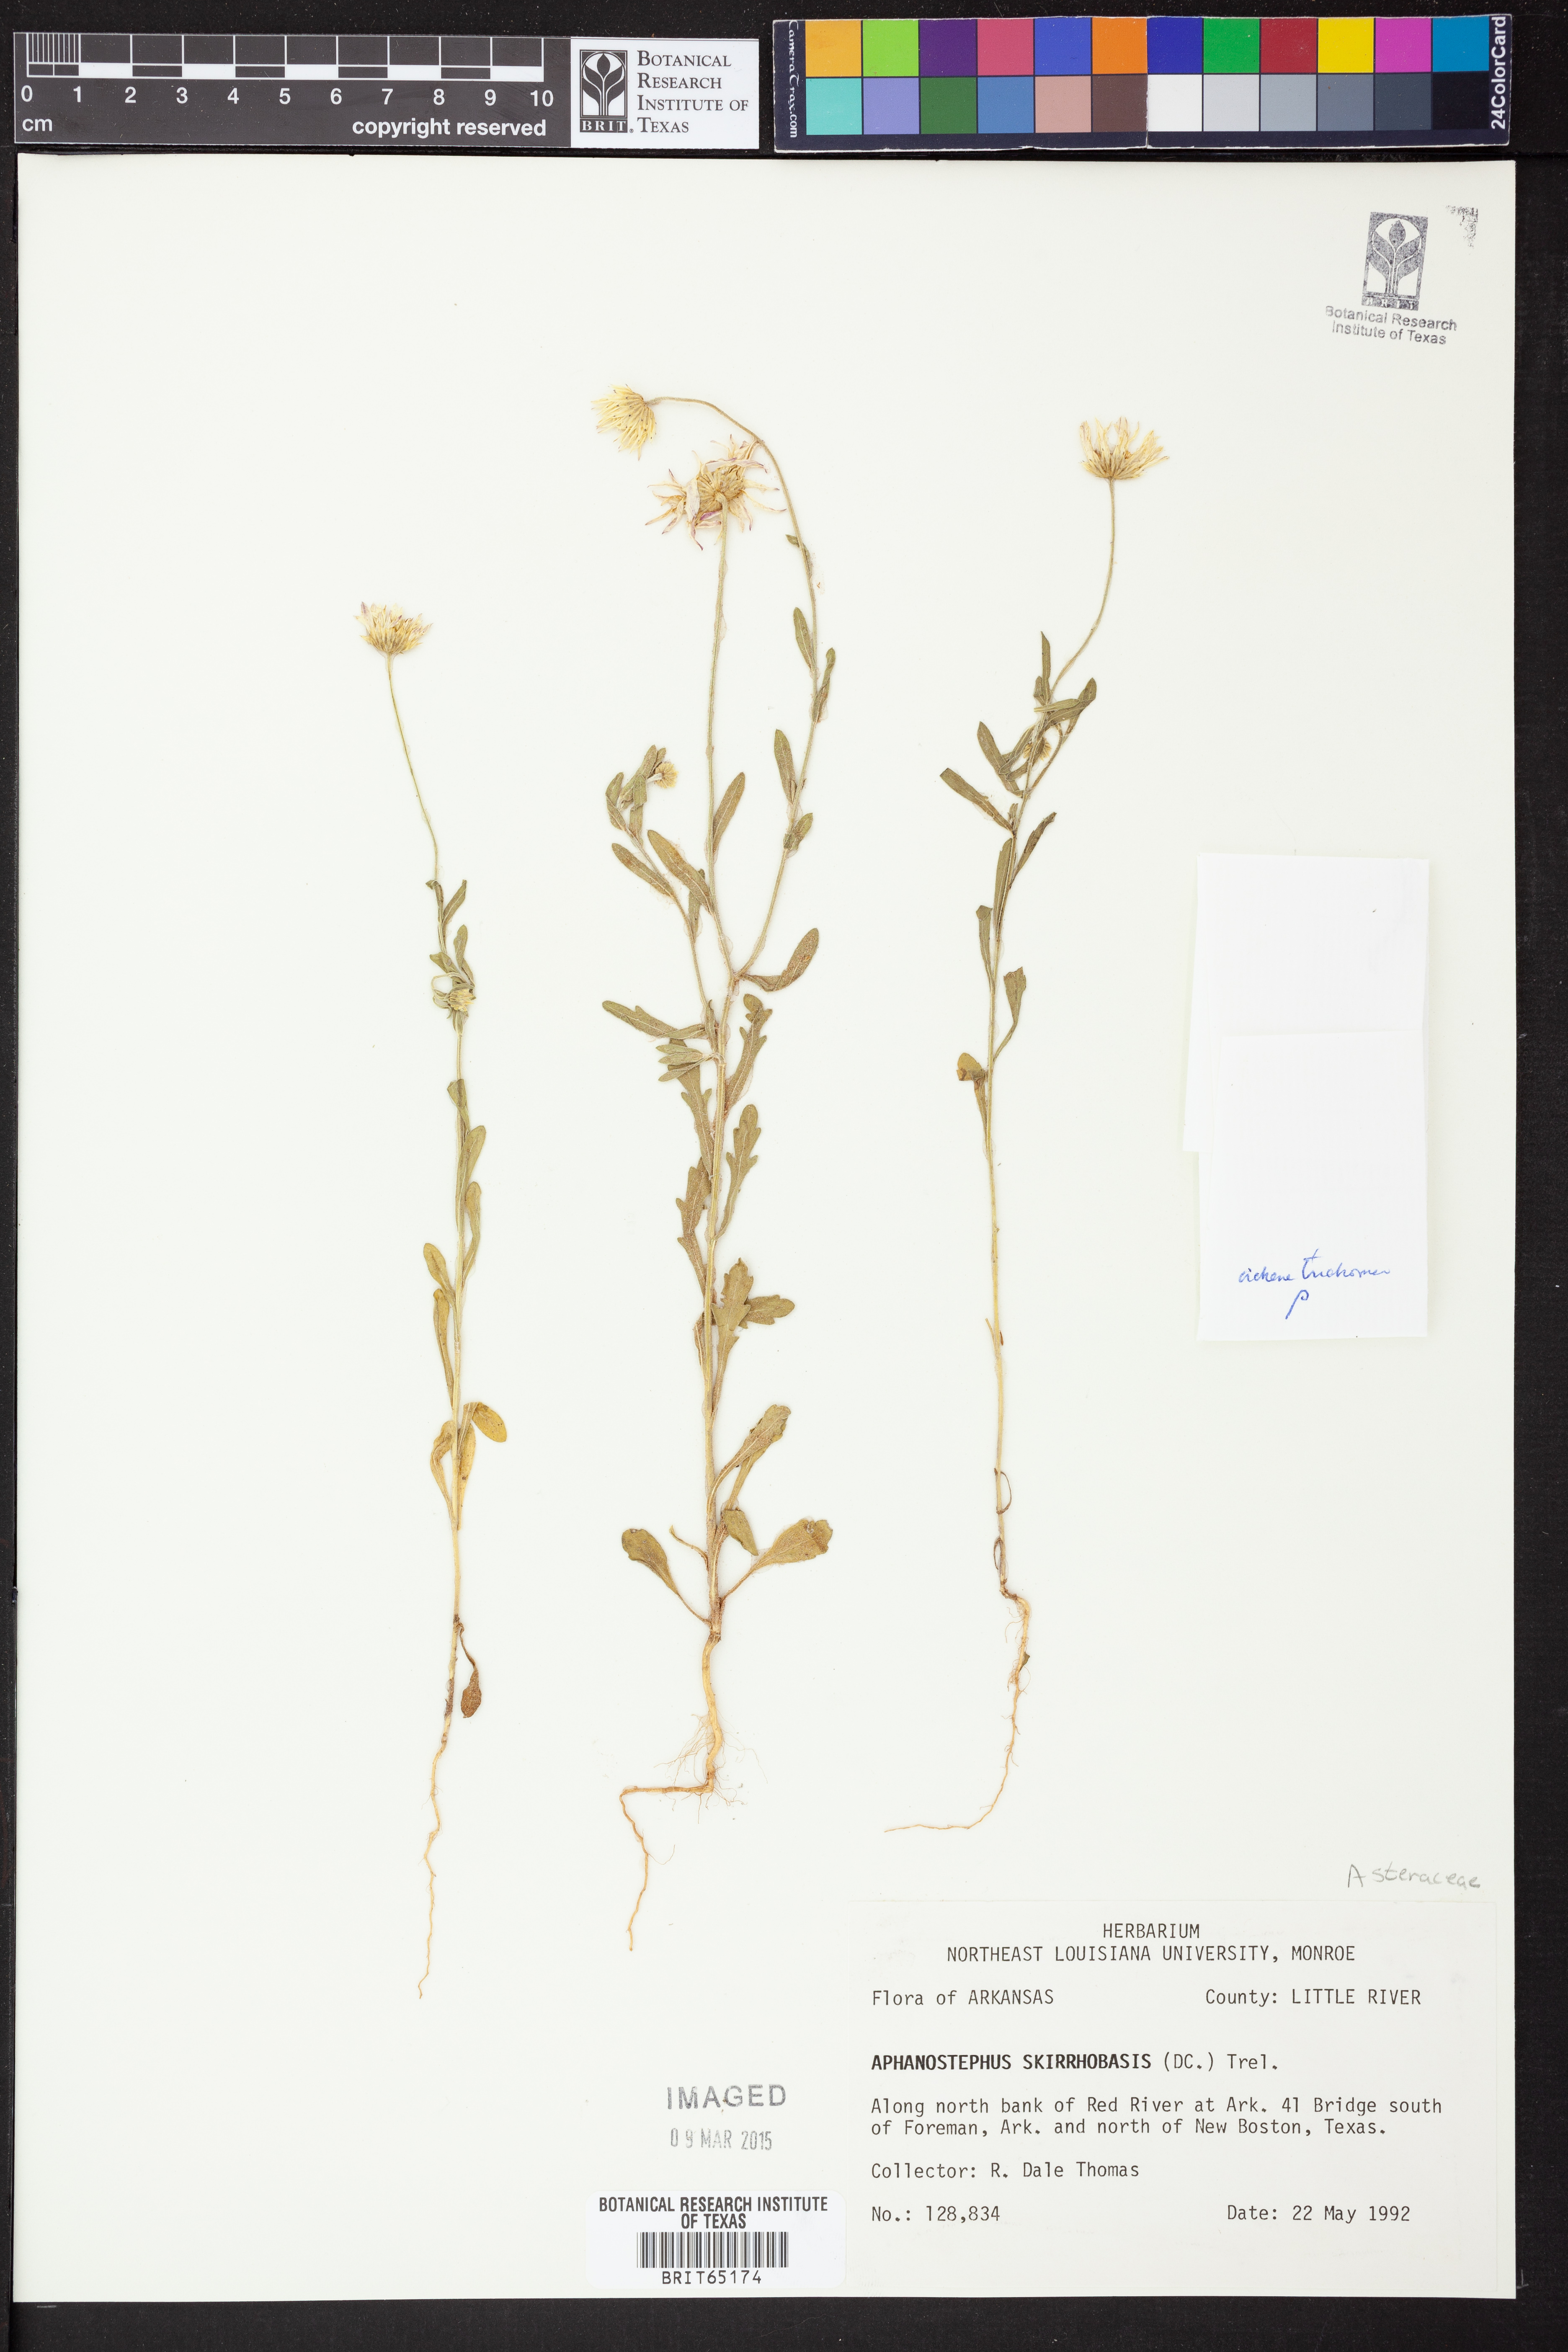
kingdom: Plantae
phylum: Tracheophyta
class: Magnoliopsida
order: Asterales
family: Asteraceae
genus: Aphanostephus
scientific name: Aphanostephus skirrhobasis
